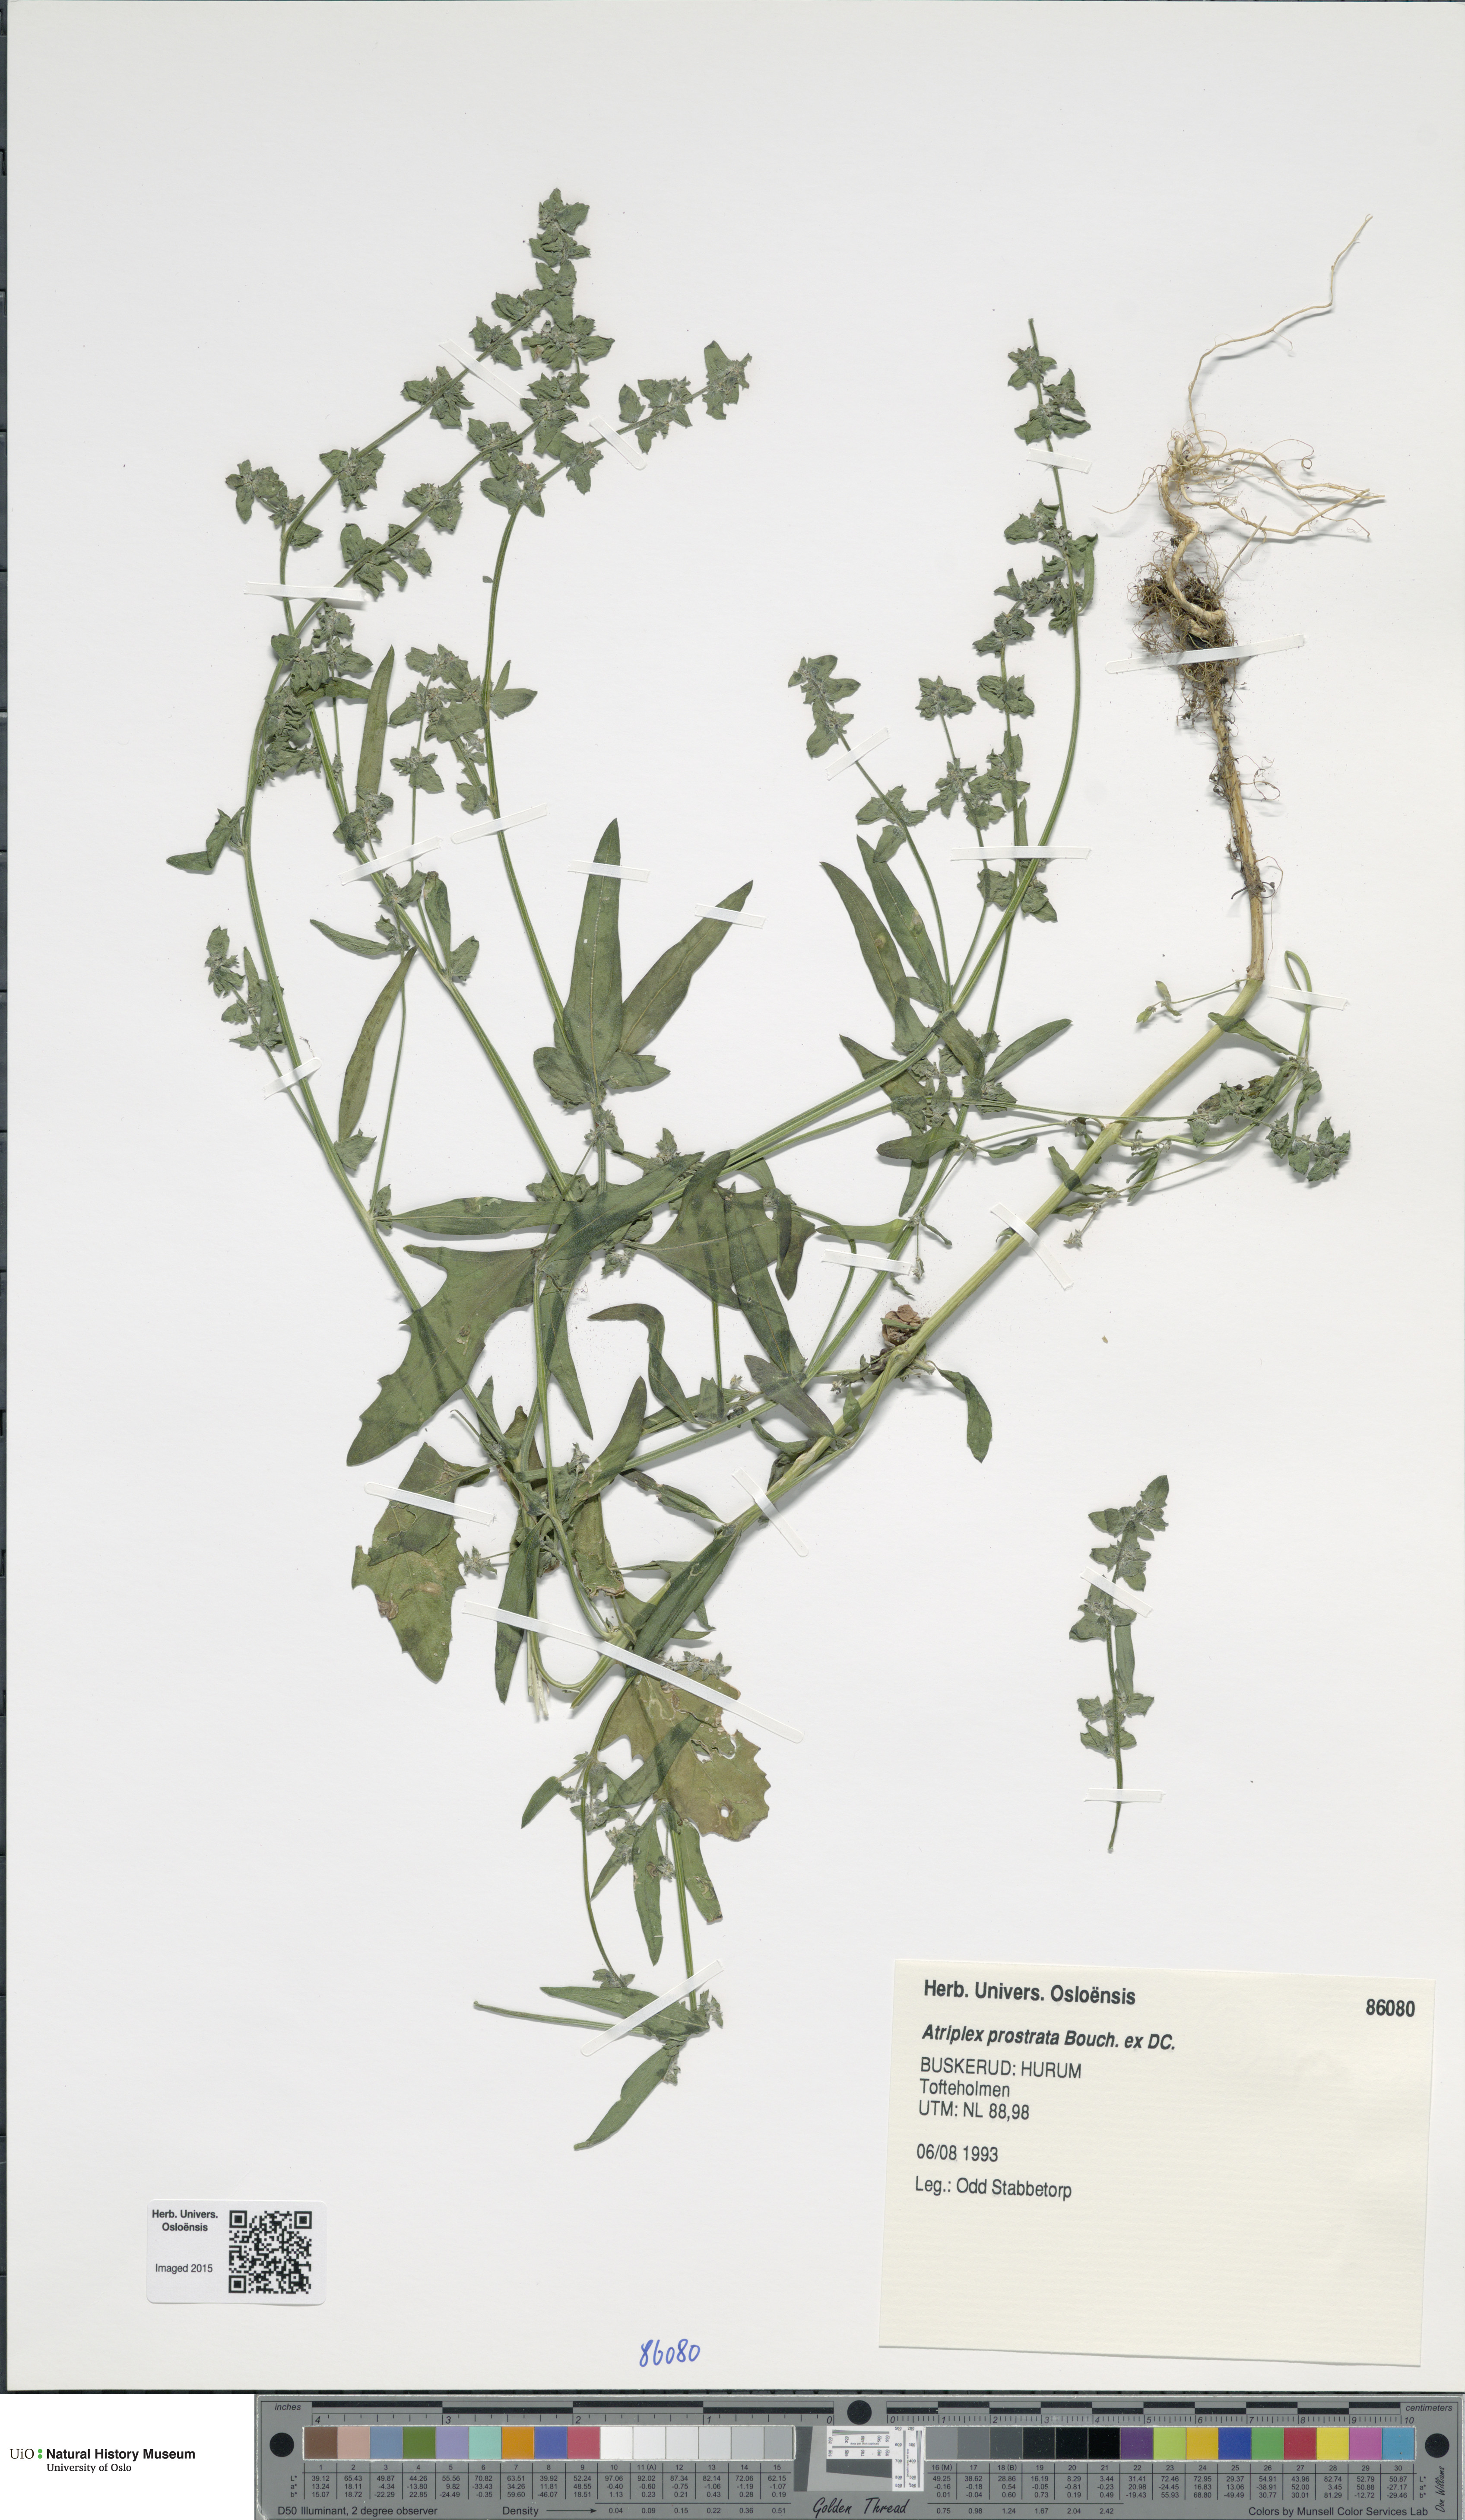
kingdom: Plantae
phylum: Tracheophyta
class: Magnoliopsida
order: Caryophyllales
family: Amaranthaceae
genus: Atriplex
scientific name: Atriplex prostrata
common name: Spear-leaved orache
